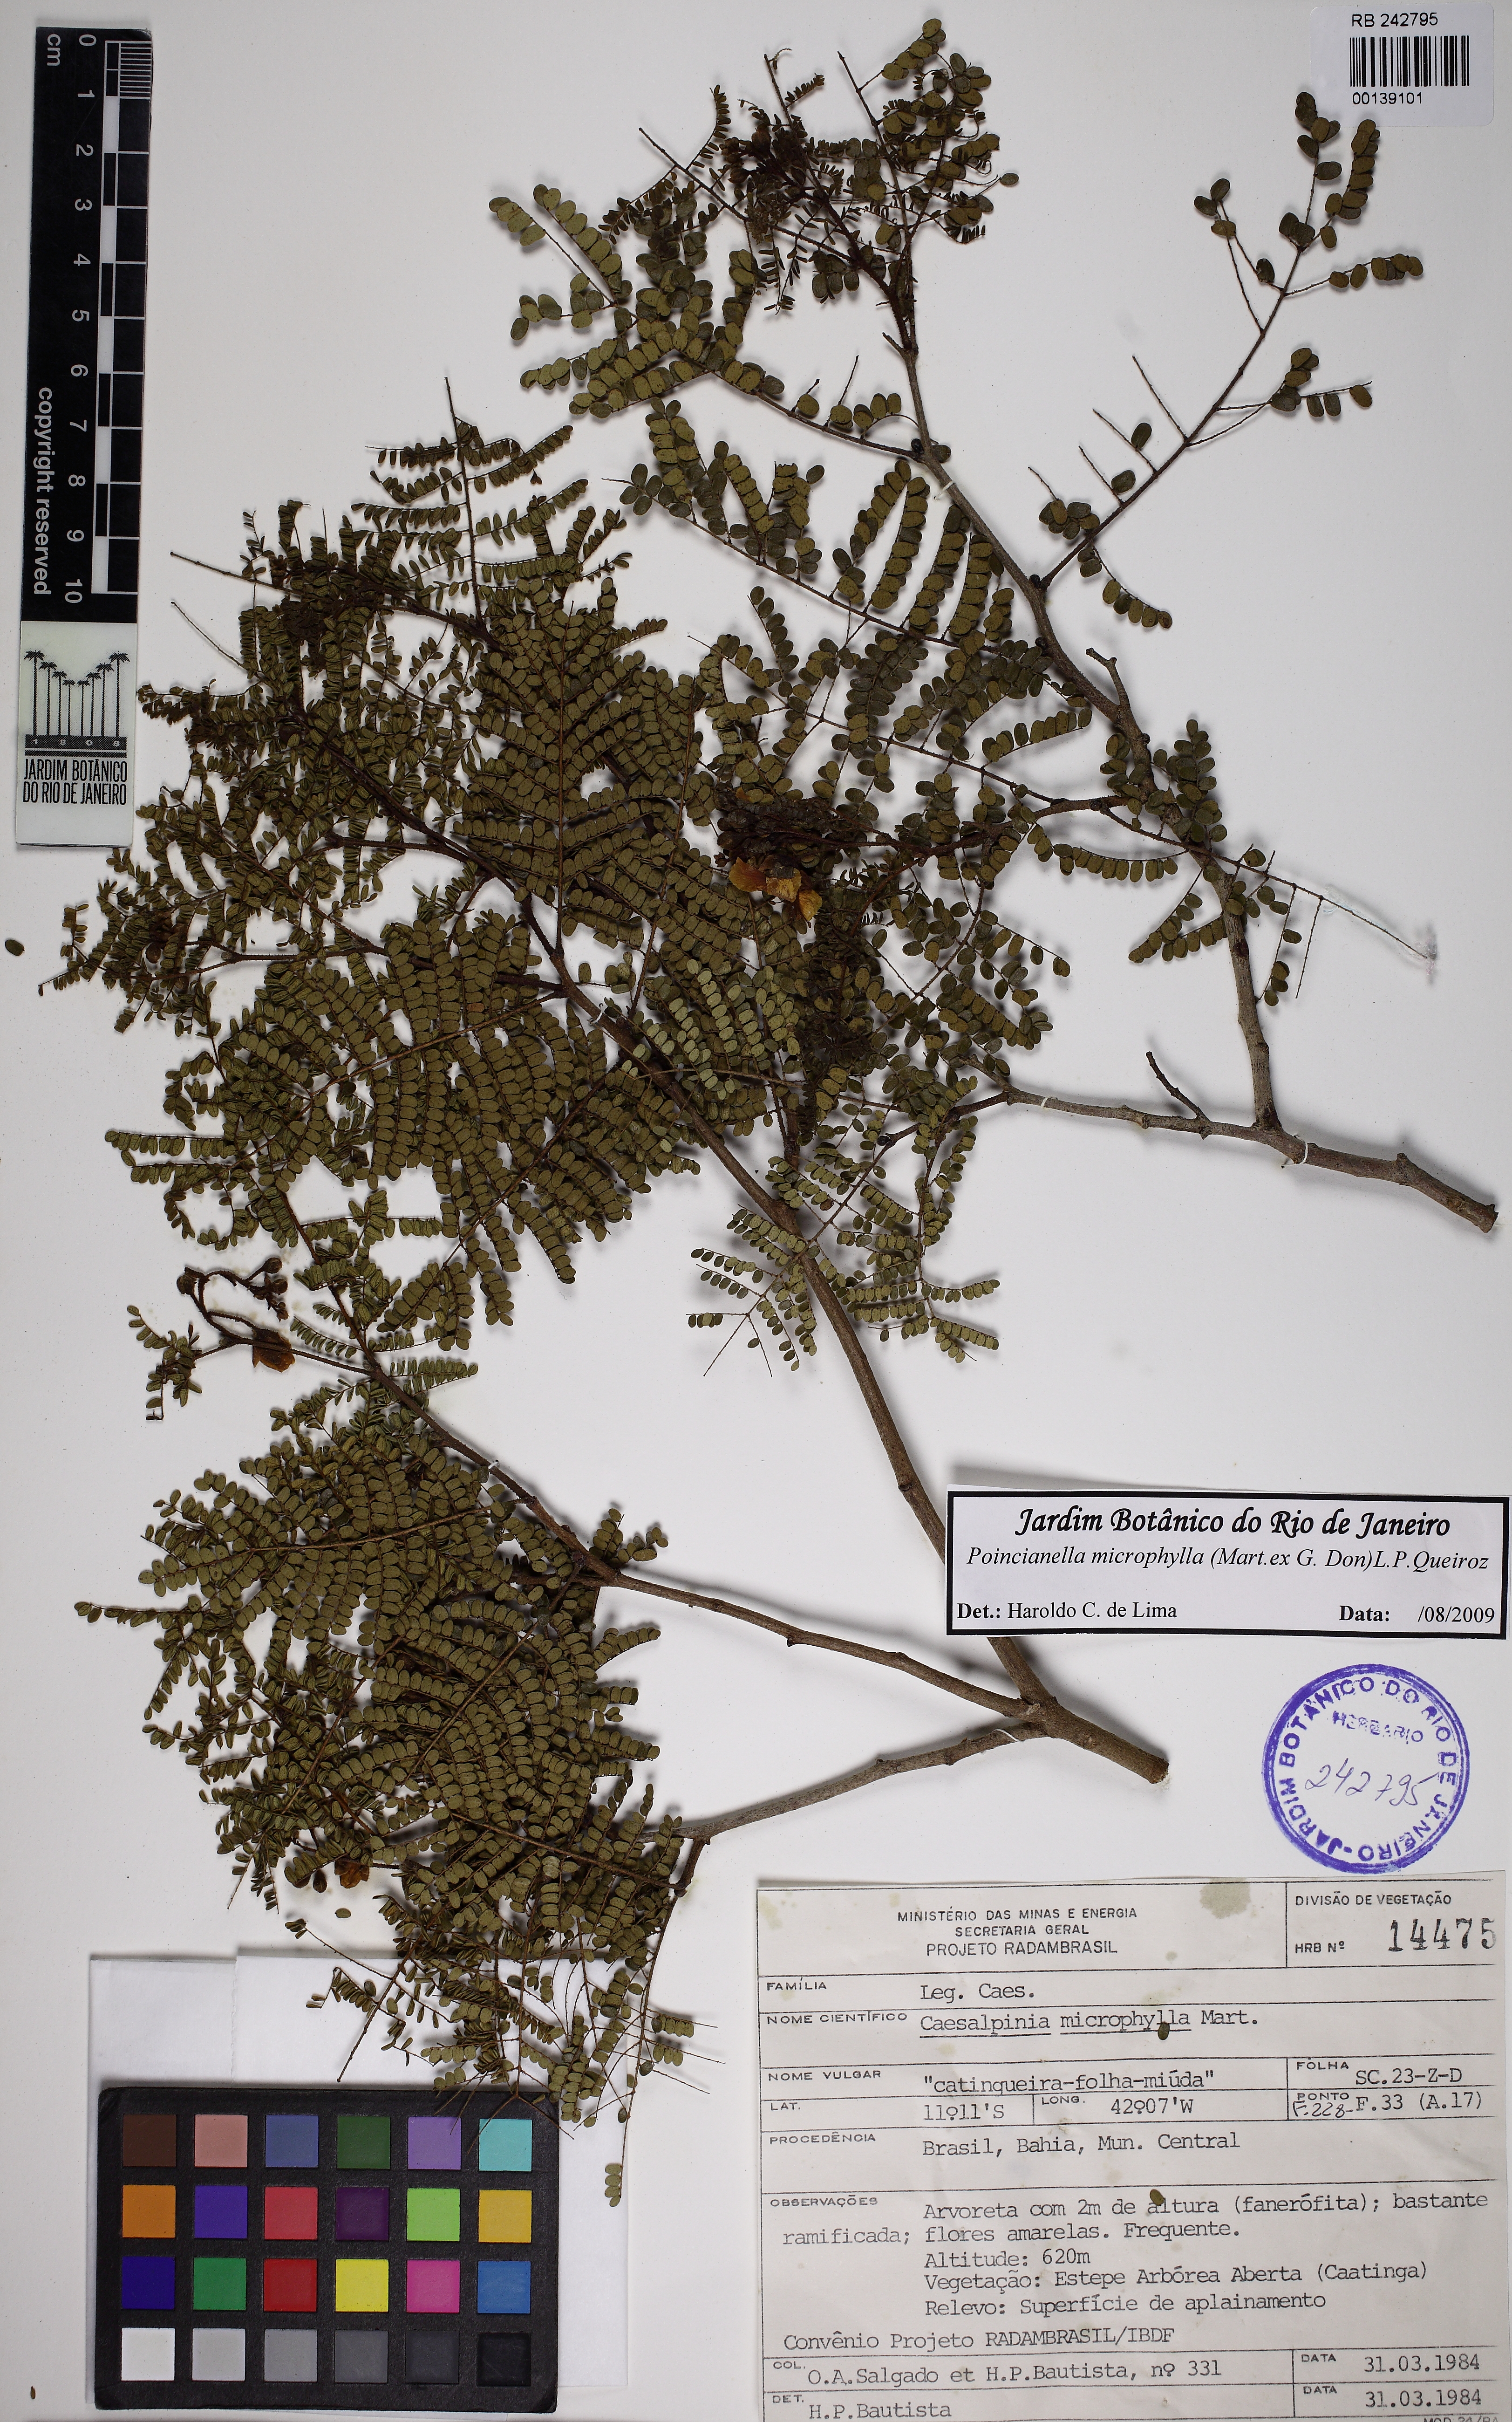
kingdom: Plantae
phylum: Tracheophyta
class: Magnoliopsida
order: Fabales
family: Fabaceae
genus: Cenostigma
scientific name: Cenostigma microphyllum
